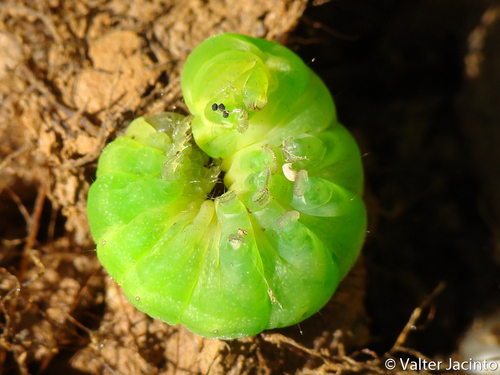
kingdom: Animalia
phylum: Arthropoda
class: Insecta
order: Lepidoptera
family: Noctuidae
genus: Phlogophora
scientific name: Phlogophora meticulosa
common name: Angle shades
